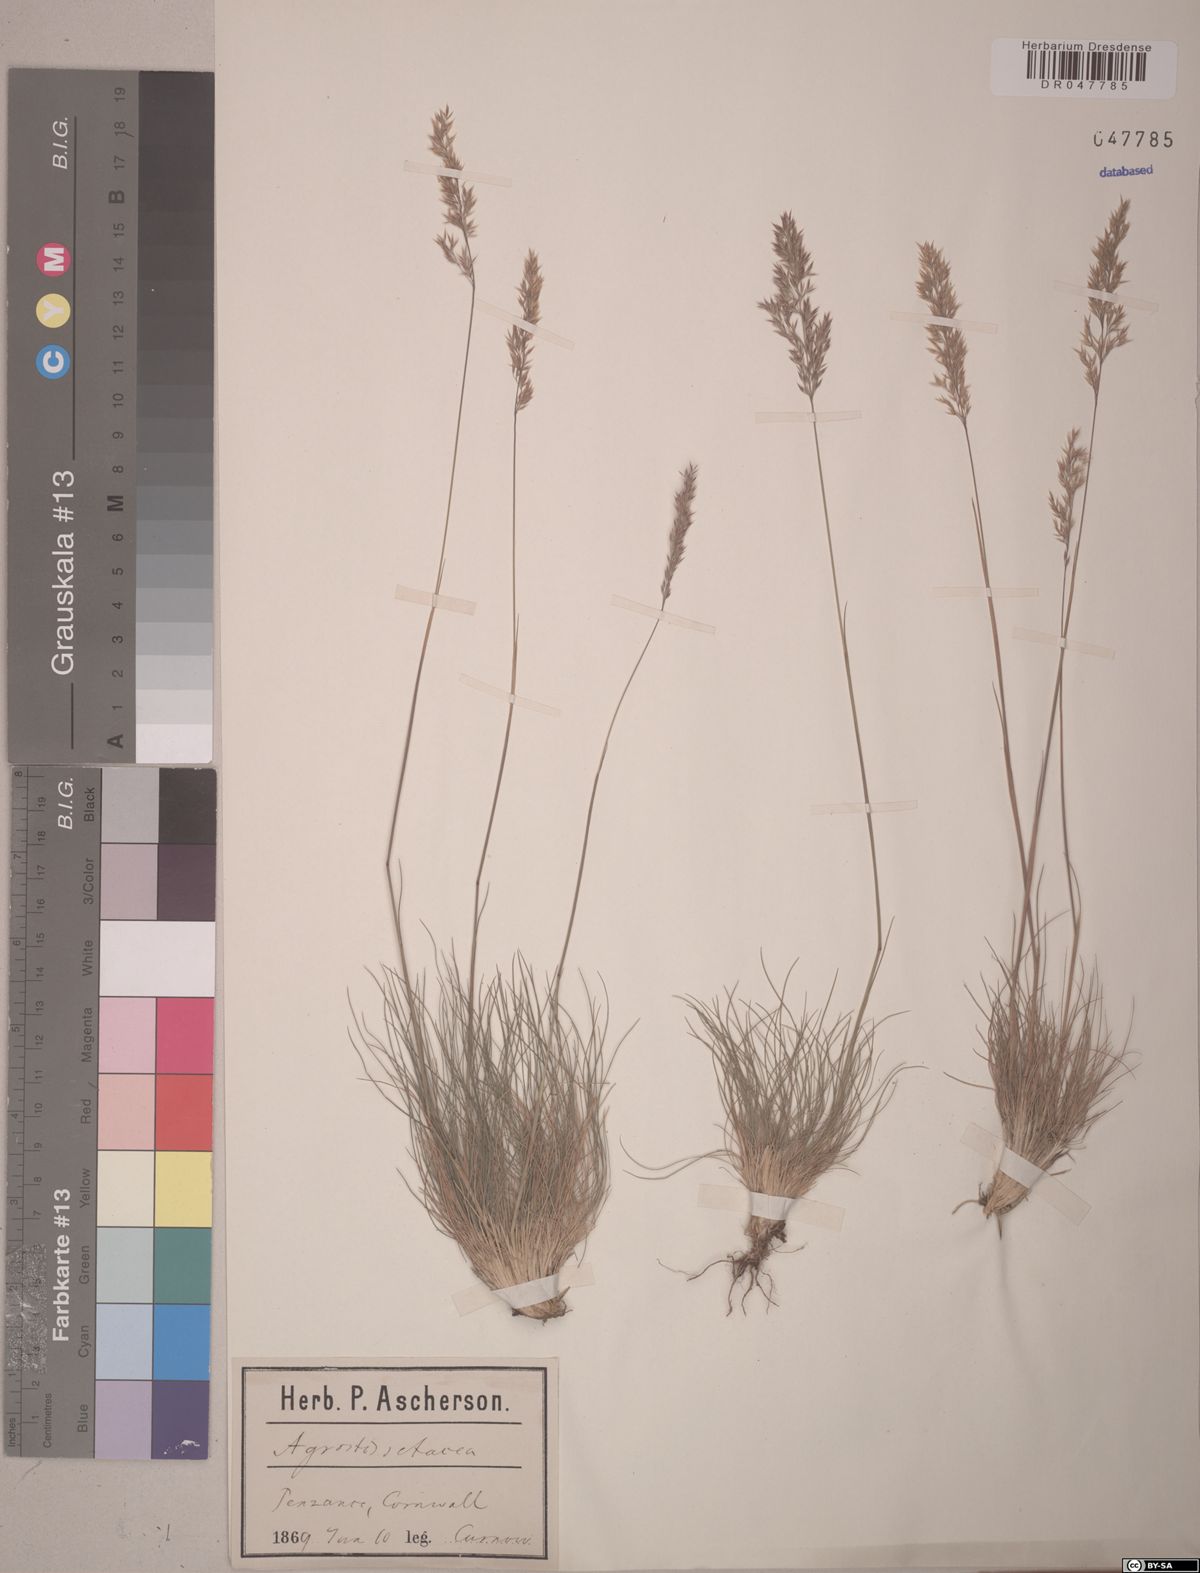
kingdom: Plantae
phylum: Tracheophyta
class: Liliopsida
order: Poales
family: Poaceae
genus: Agrostis
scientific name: Agrostis rupestris
